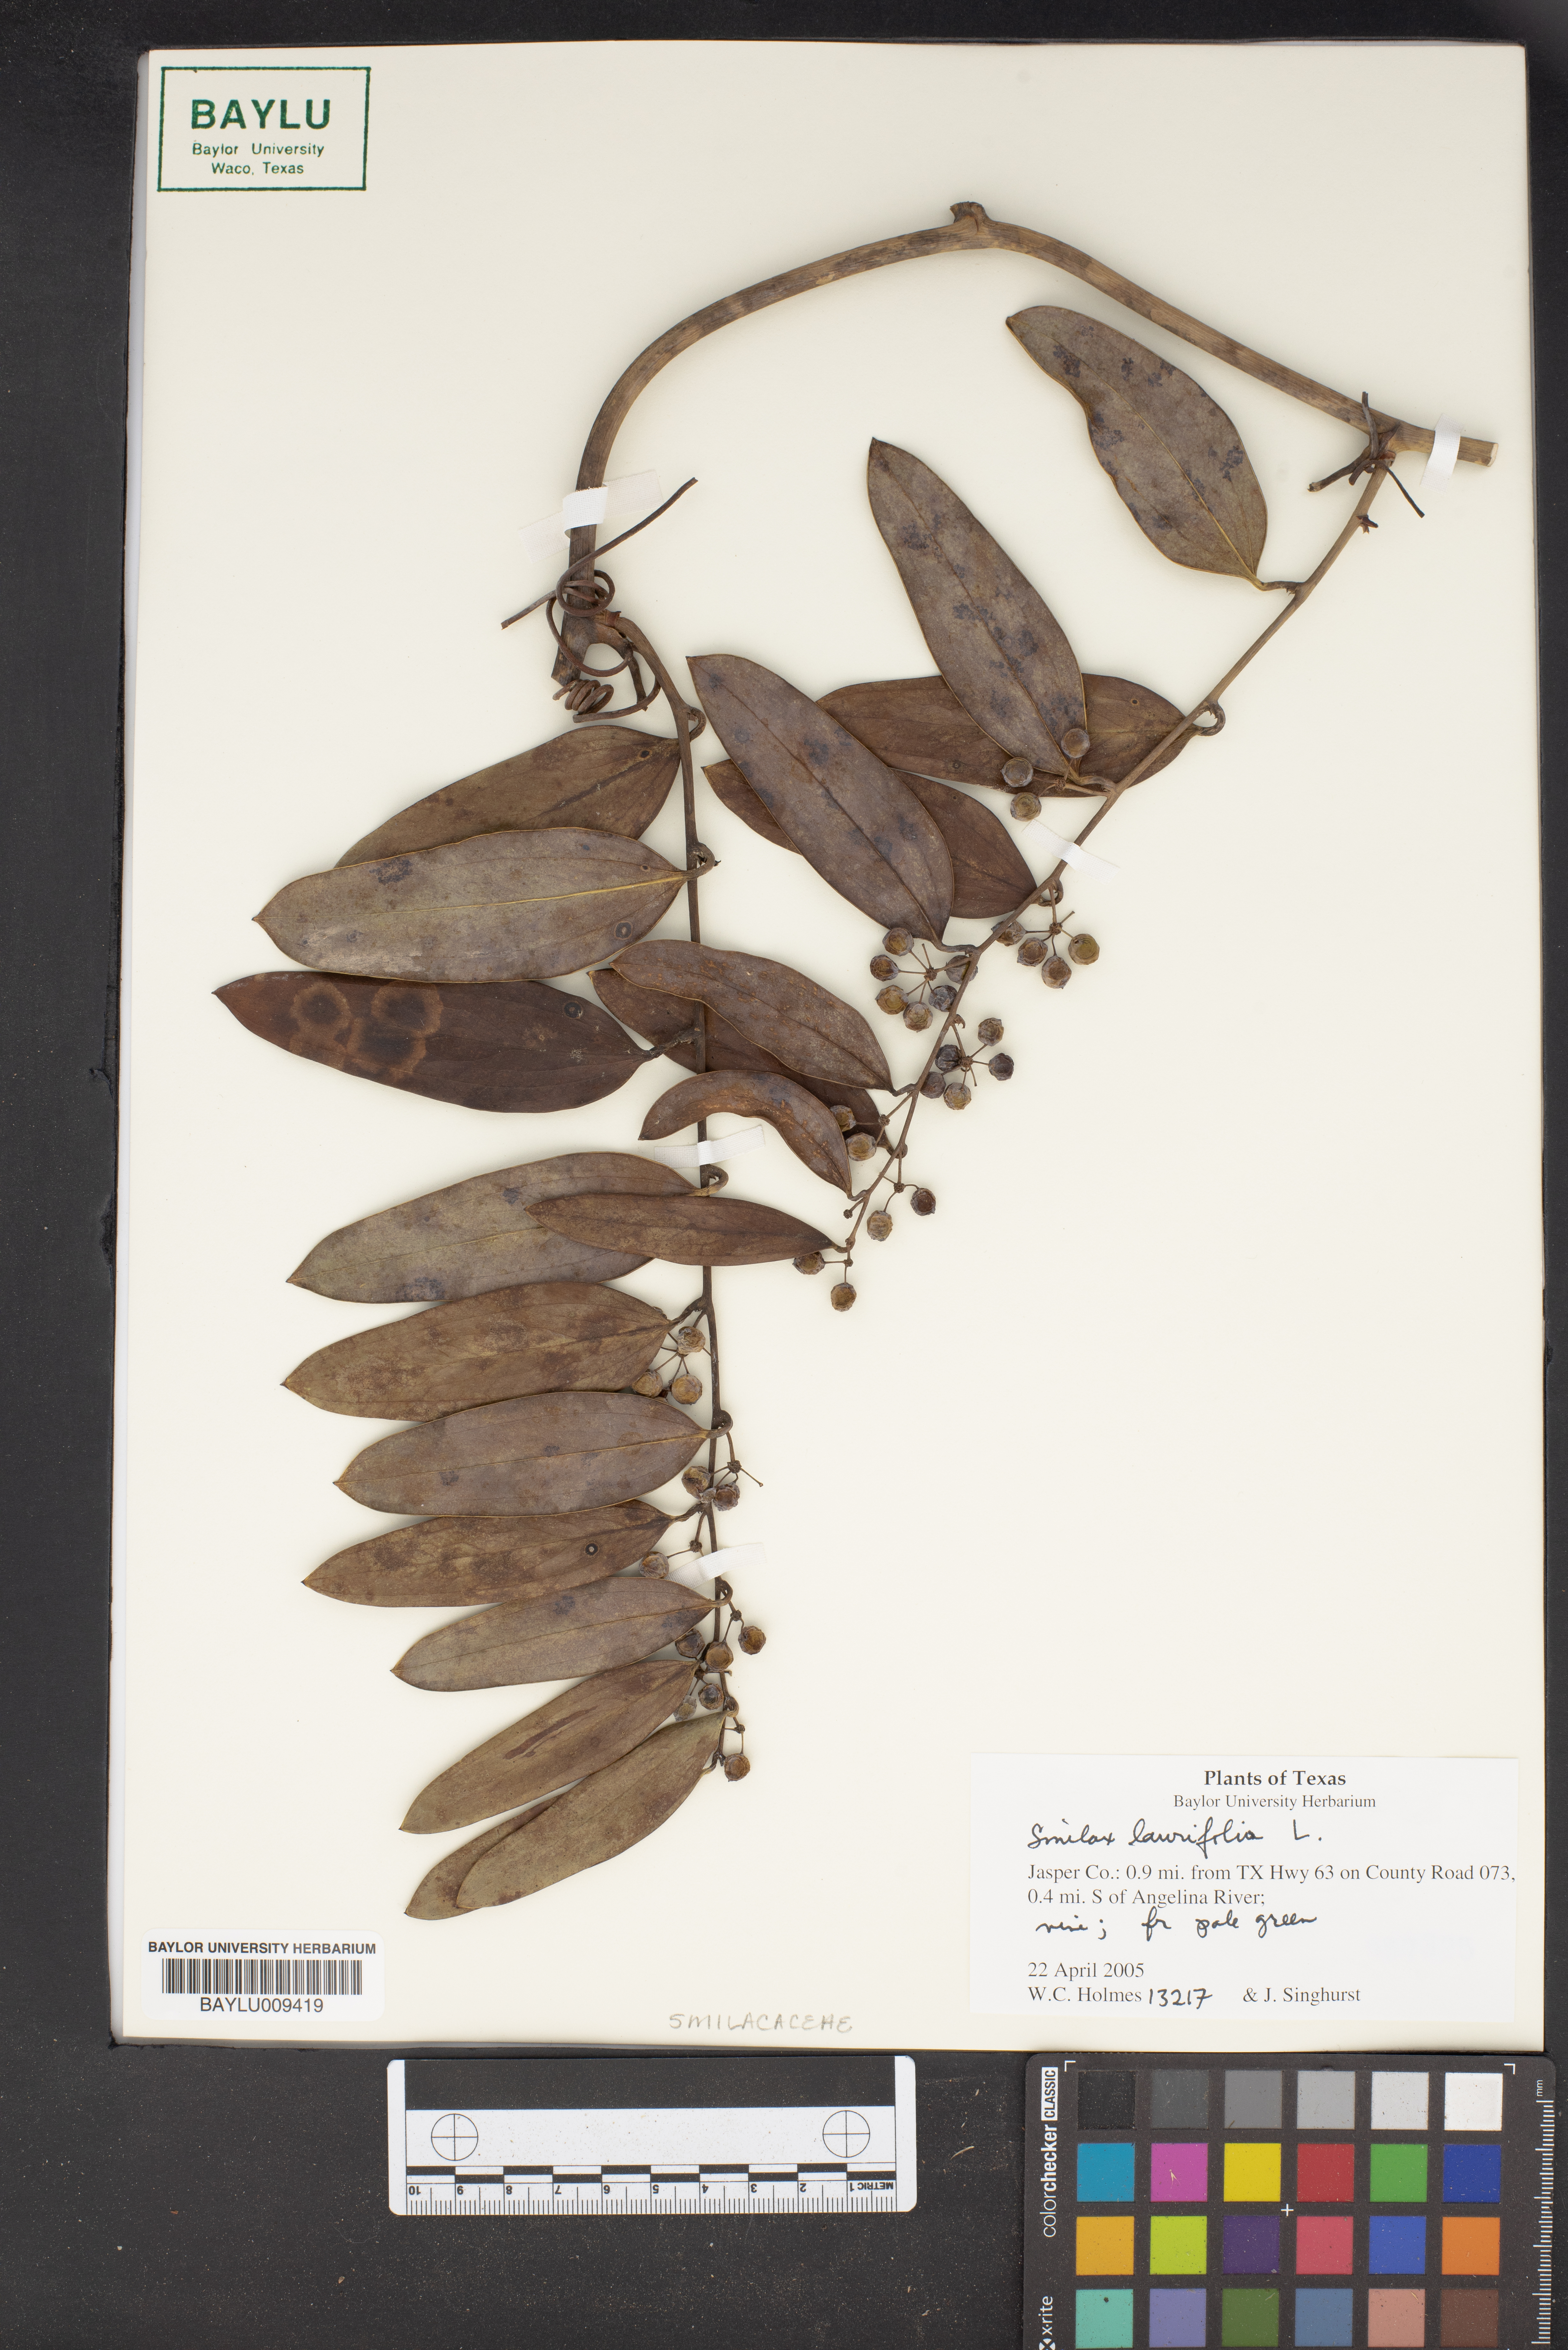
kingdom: Plantae
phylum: Tracheophyta
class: Liliopsida
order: Liliales
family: Smilacaceae
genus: Smilax
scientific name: Smilax laurifolia
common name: Bamboovine
